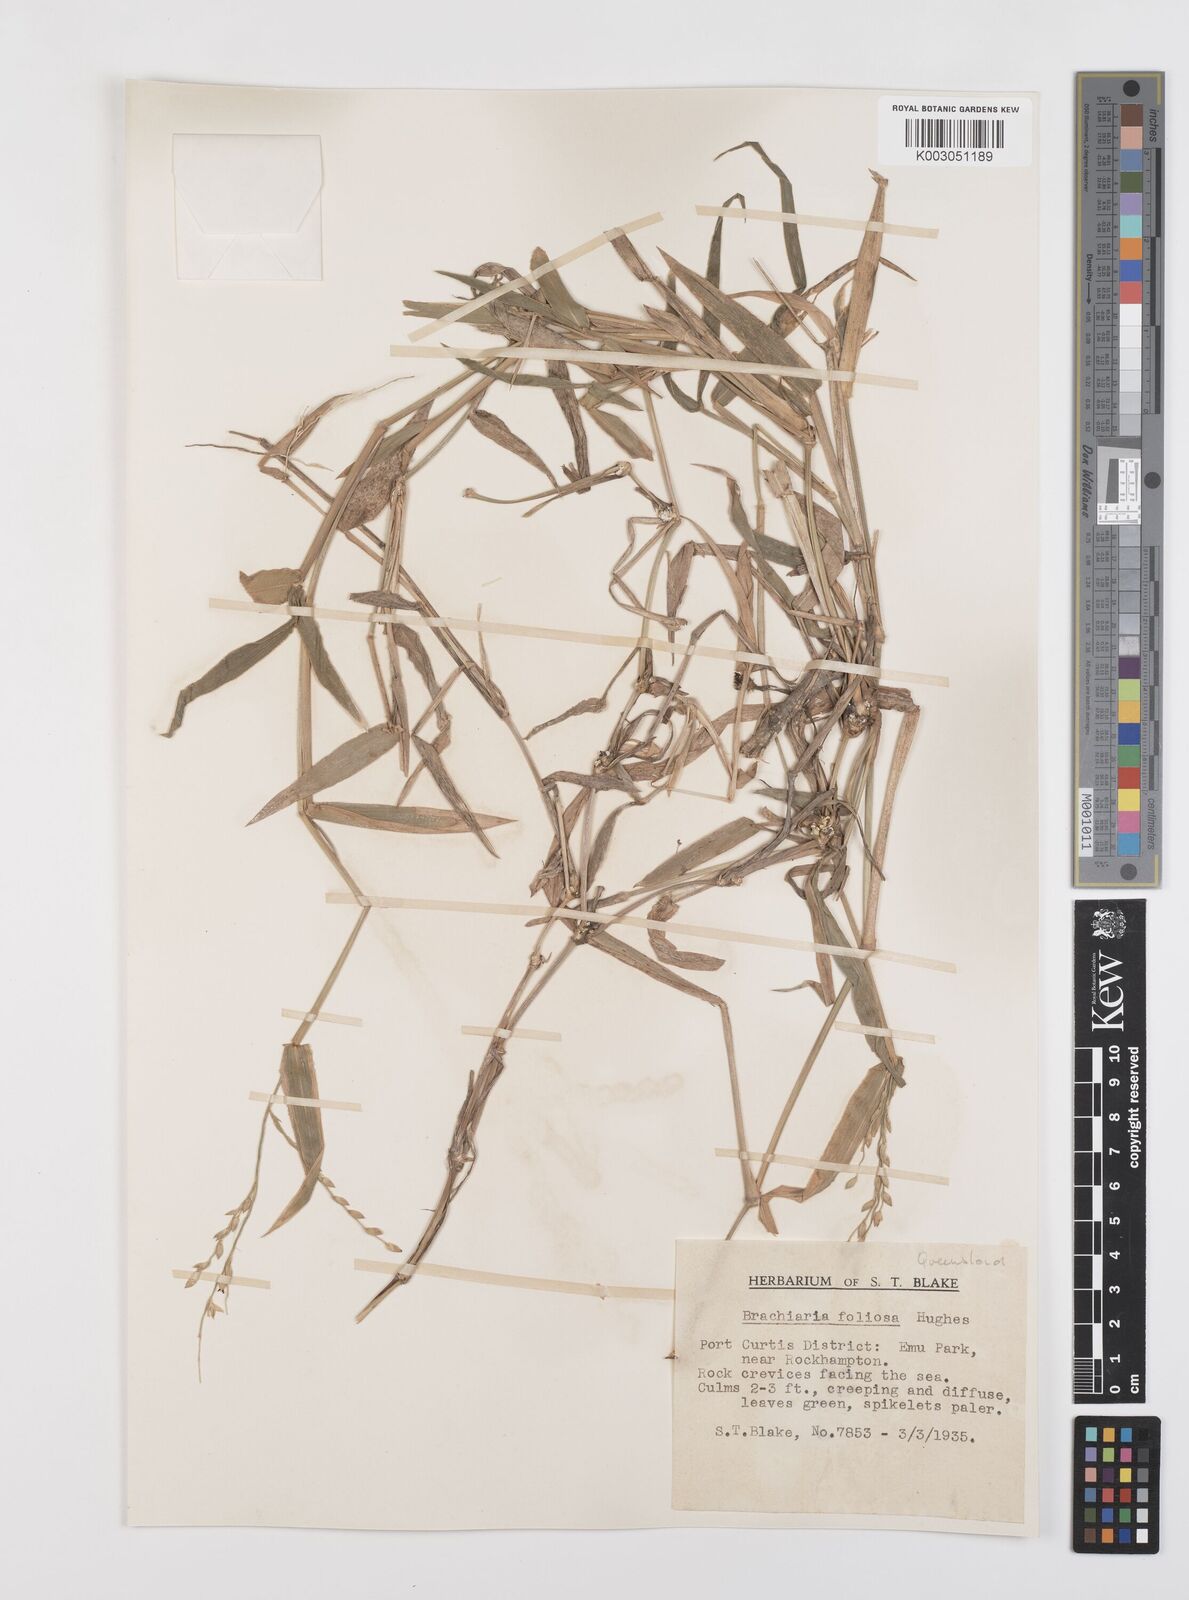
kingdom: Plantae
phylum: Tracheophyta
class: Liliopsida
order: Poales
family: Poaceae
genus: Urochloa
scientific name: Urochloa foliosa
